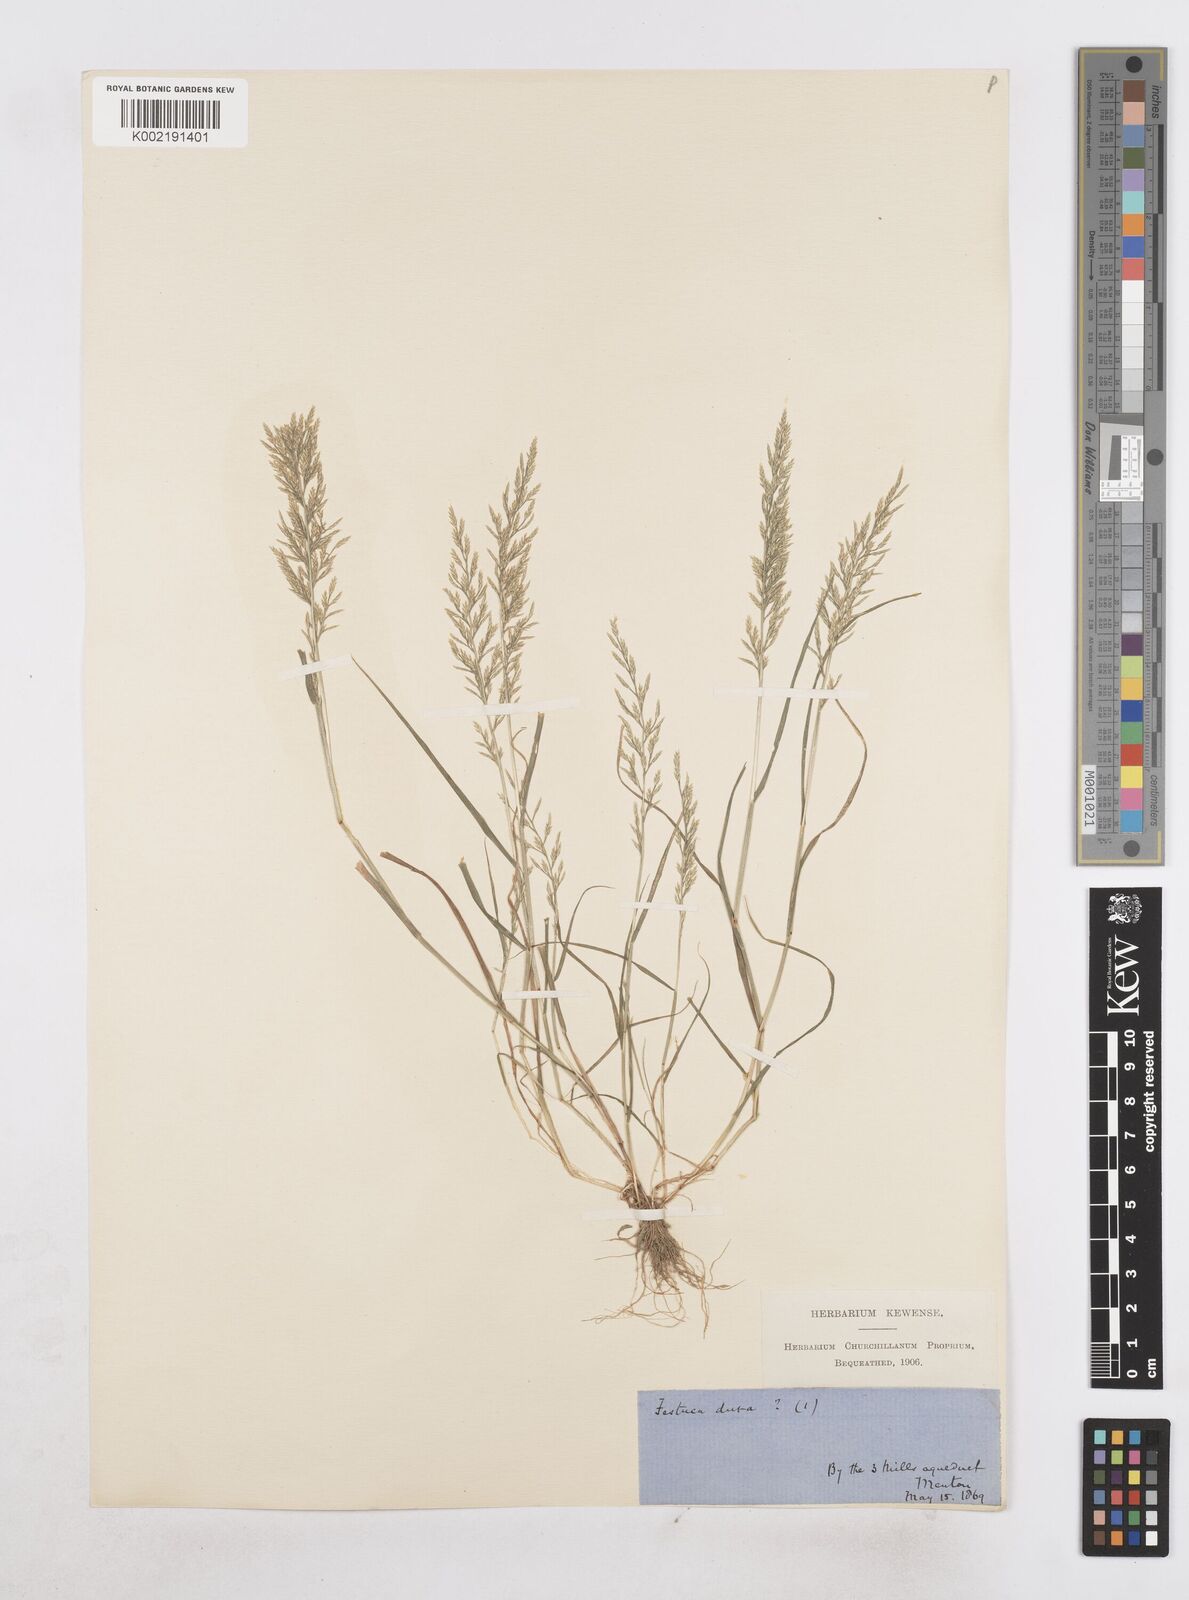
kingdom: Plantae
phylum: Tracheophyta
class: Liliopsida
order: Poales
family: Poaceae
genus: Catapodium
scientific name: Catapodium rigidum
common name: Fern-grass
